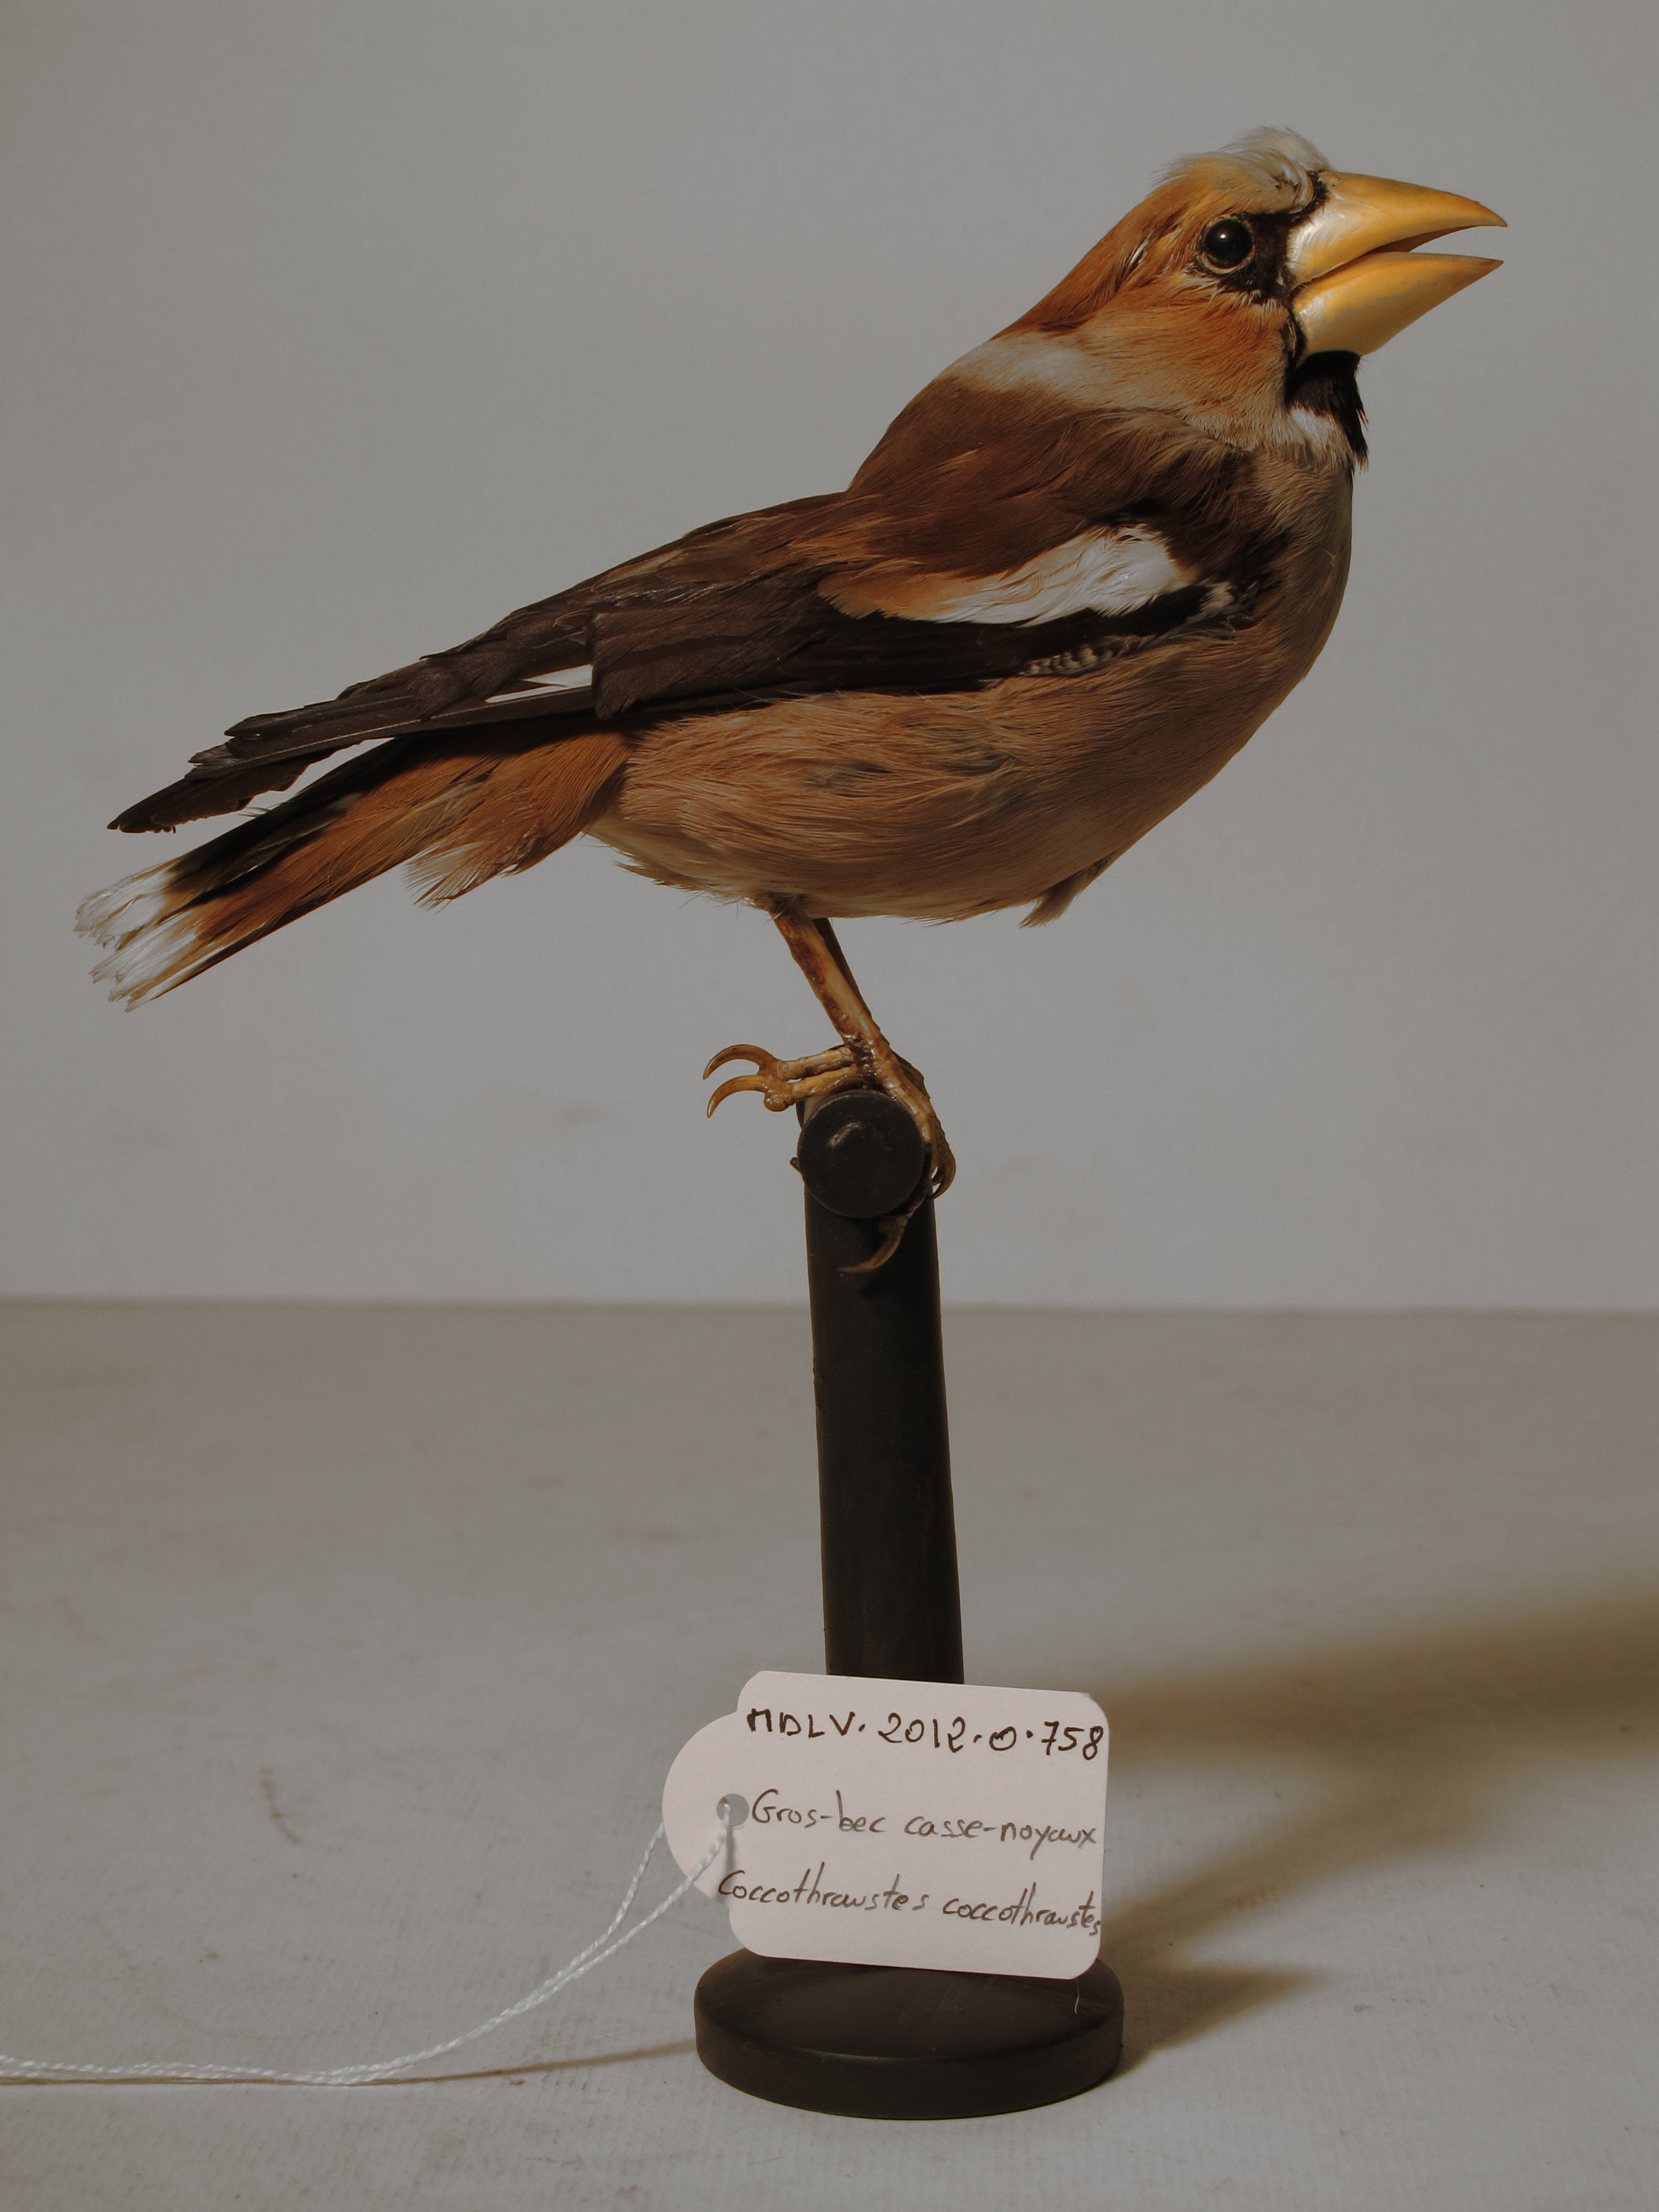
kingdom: Animalia
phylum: Chordata
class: Aves
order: Passeriformes
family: Fringillidae
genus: Coccothraustes
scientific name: Coccothraustes coccothraustes
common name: Hawfinch
